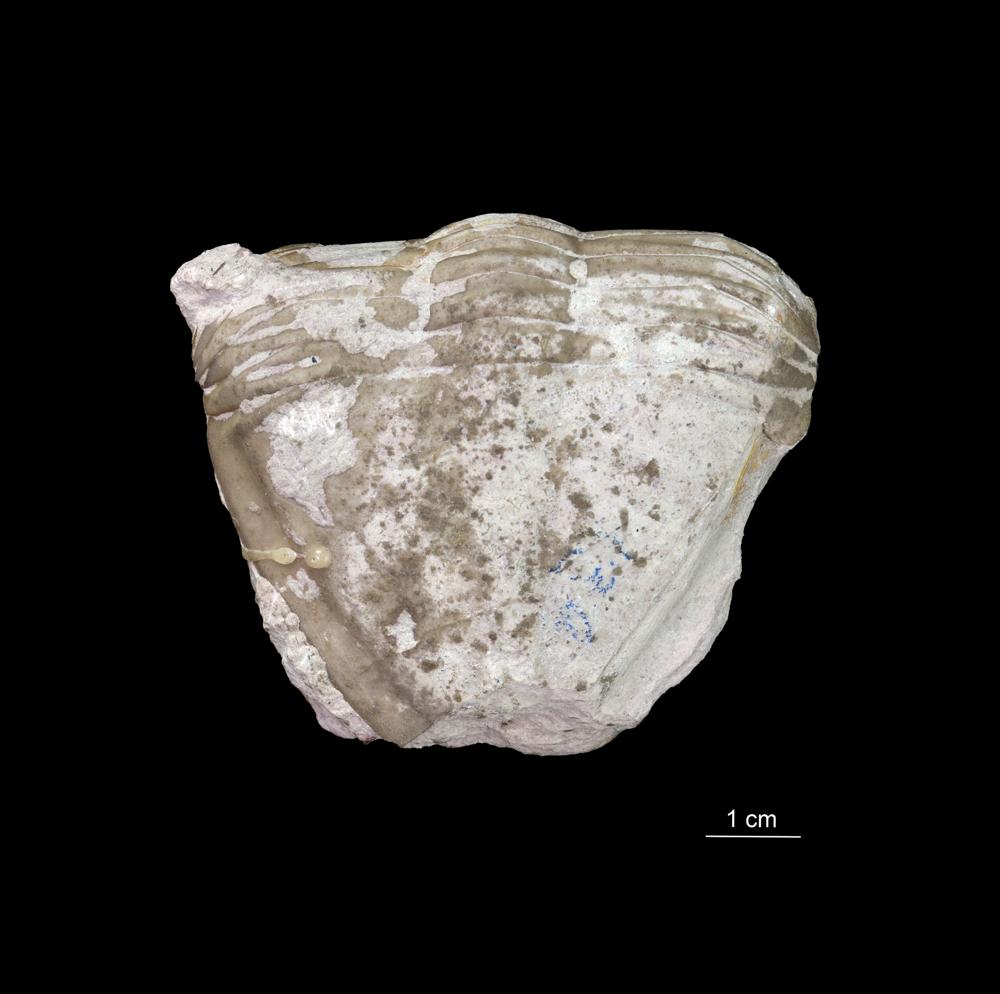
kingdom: Animalia
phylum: Arthropoda
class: Trilobita
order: Asaphida
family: Asaphidae
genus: Megistaspis
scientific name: Megistaspis Megalaspis acuticauda
